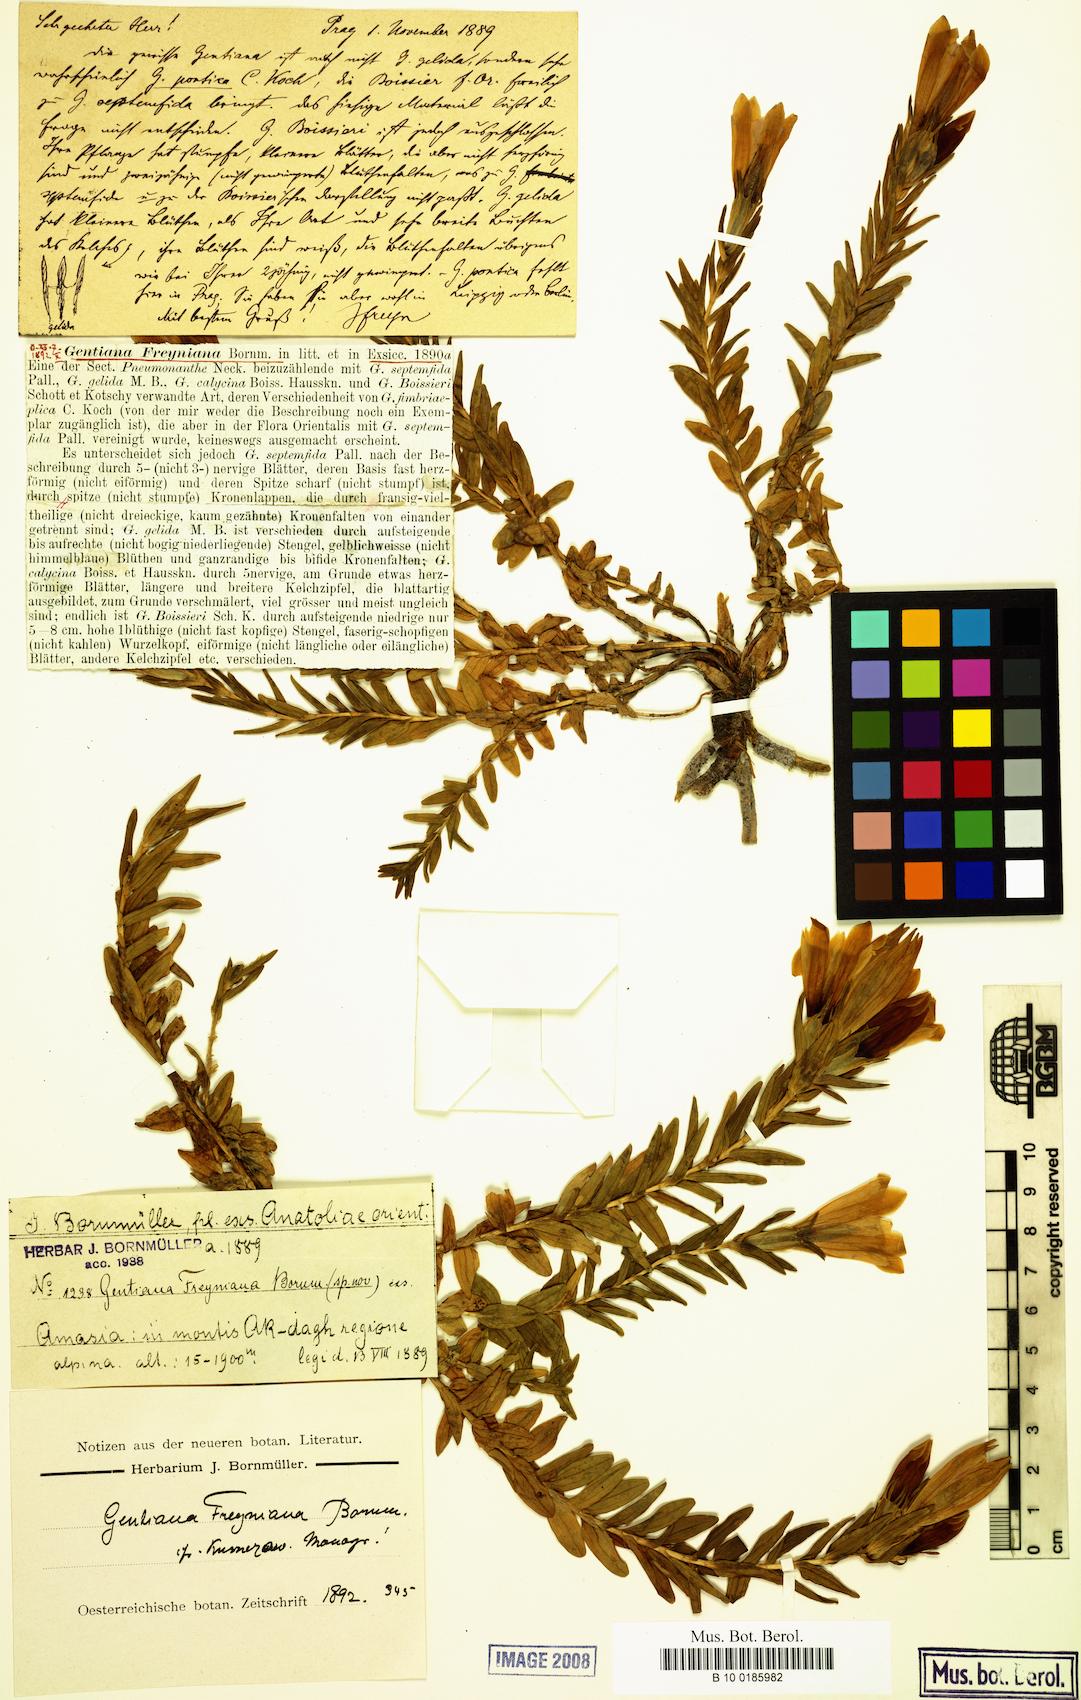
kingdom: Plantae
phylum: Tracheophyta
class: Magnoliopsida
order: Gentianales
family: Gentianaceae
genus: Gentiana
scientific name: Gentiana septemfida
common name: Crested gentian
